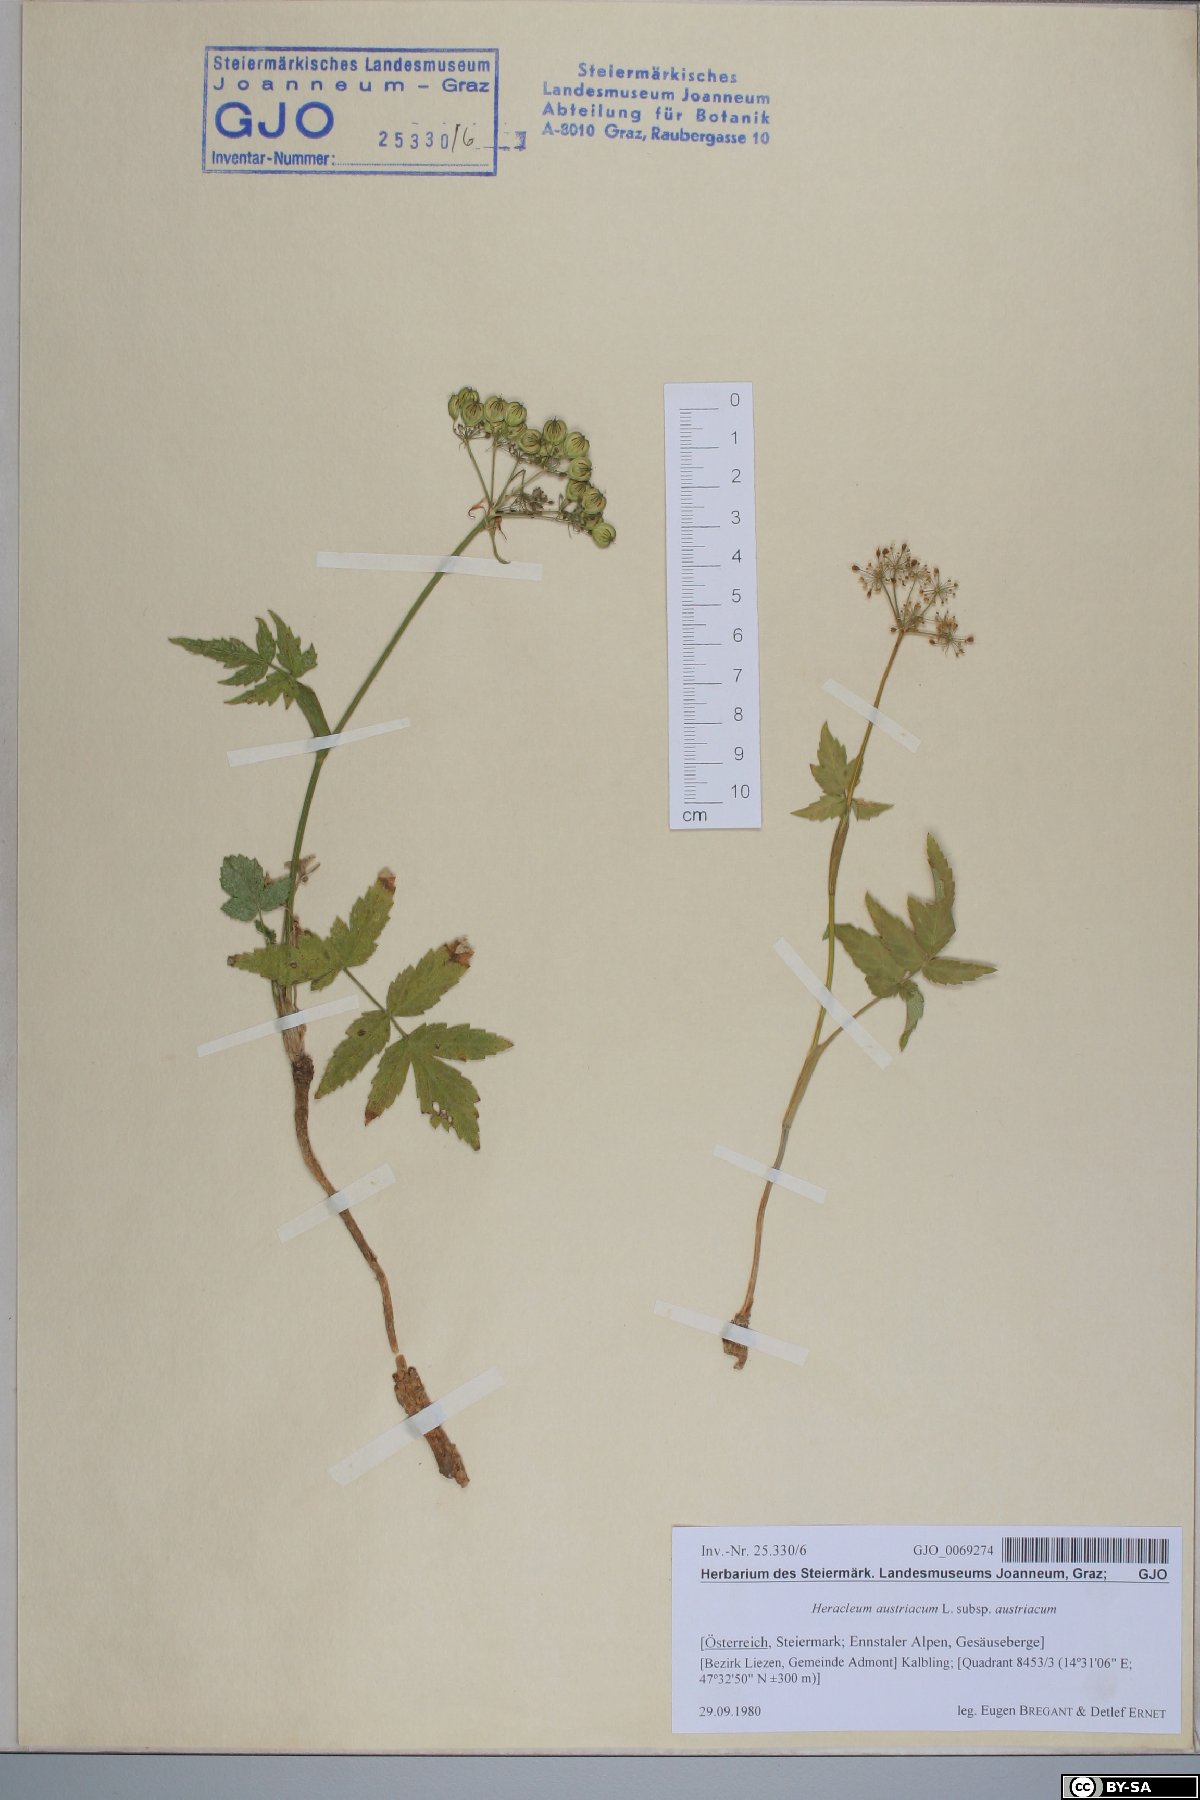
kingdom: Plantae
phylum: Tracheophyta
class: Magnoliopsida
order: Apiales
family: Apiaceae
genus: Heracleum
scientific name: Heracleum austriacum
